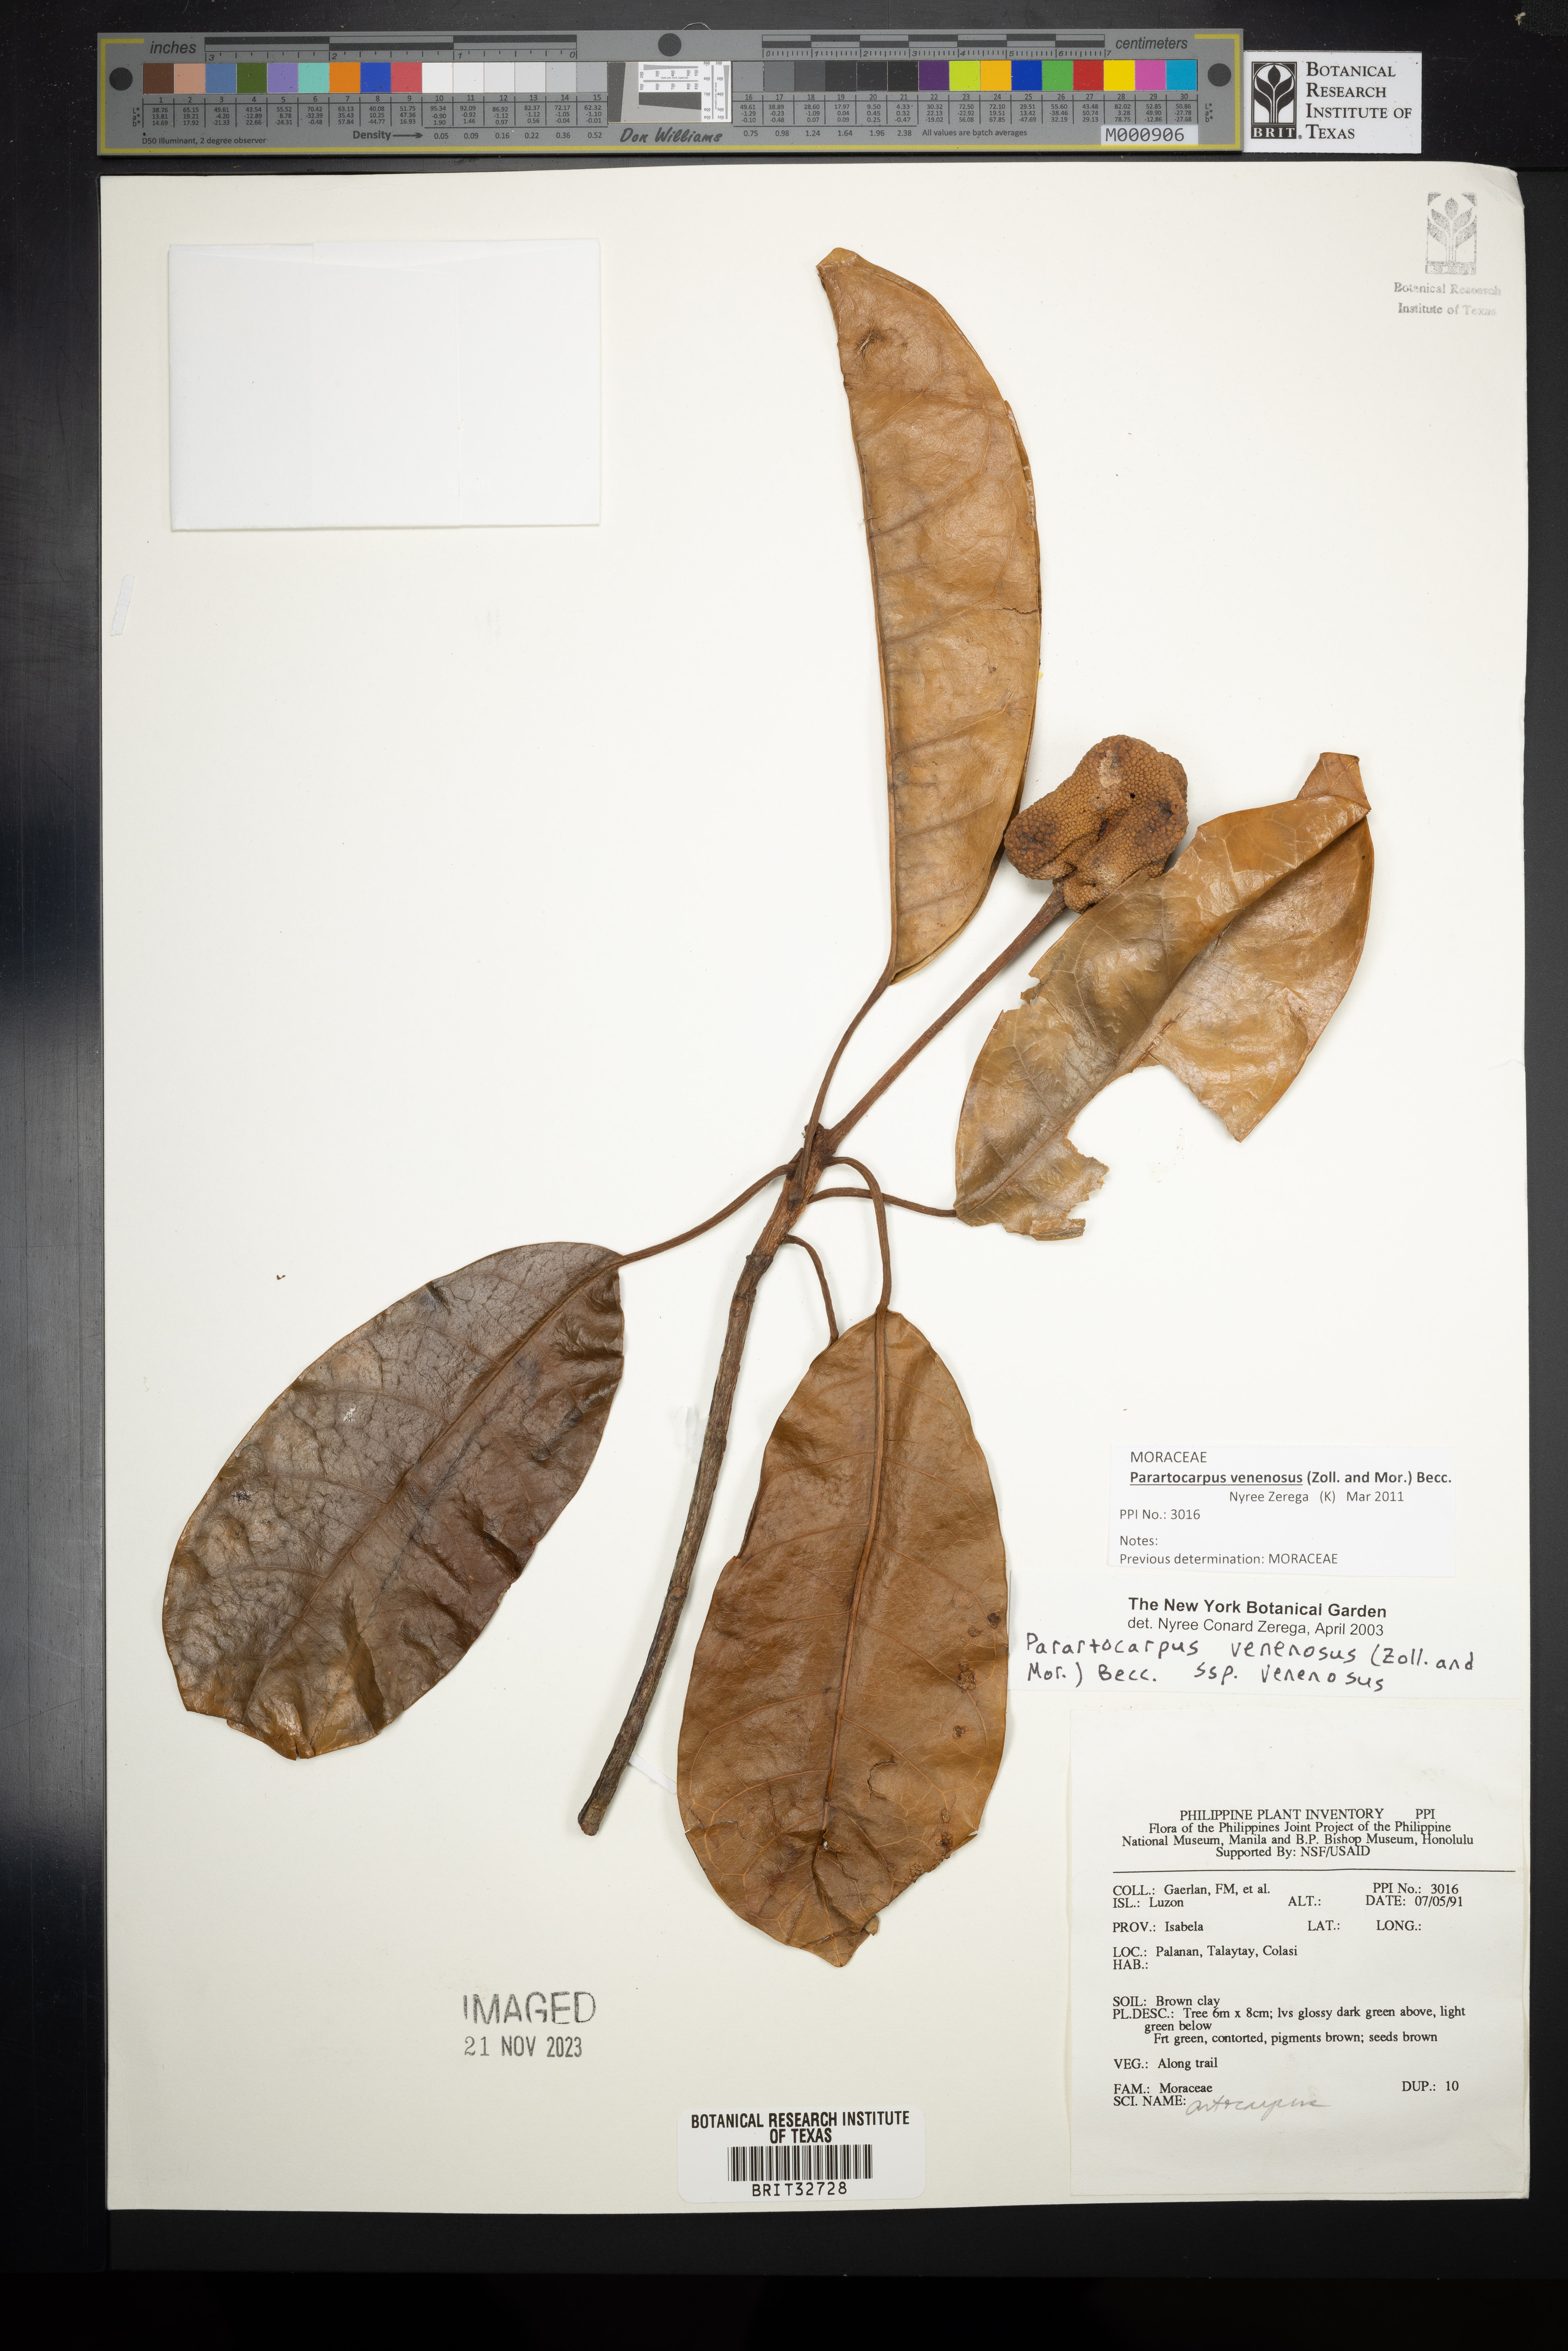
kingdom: Plantae
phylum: Tracheophyta
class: Magnoliopsida
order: Rosales
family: Moraceae
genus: Parartocarpus
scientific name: Parartocarpus venenosa
